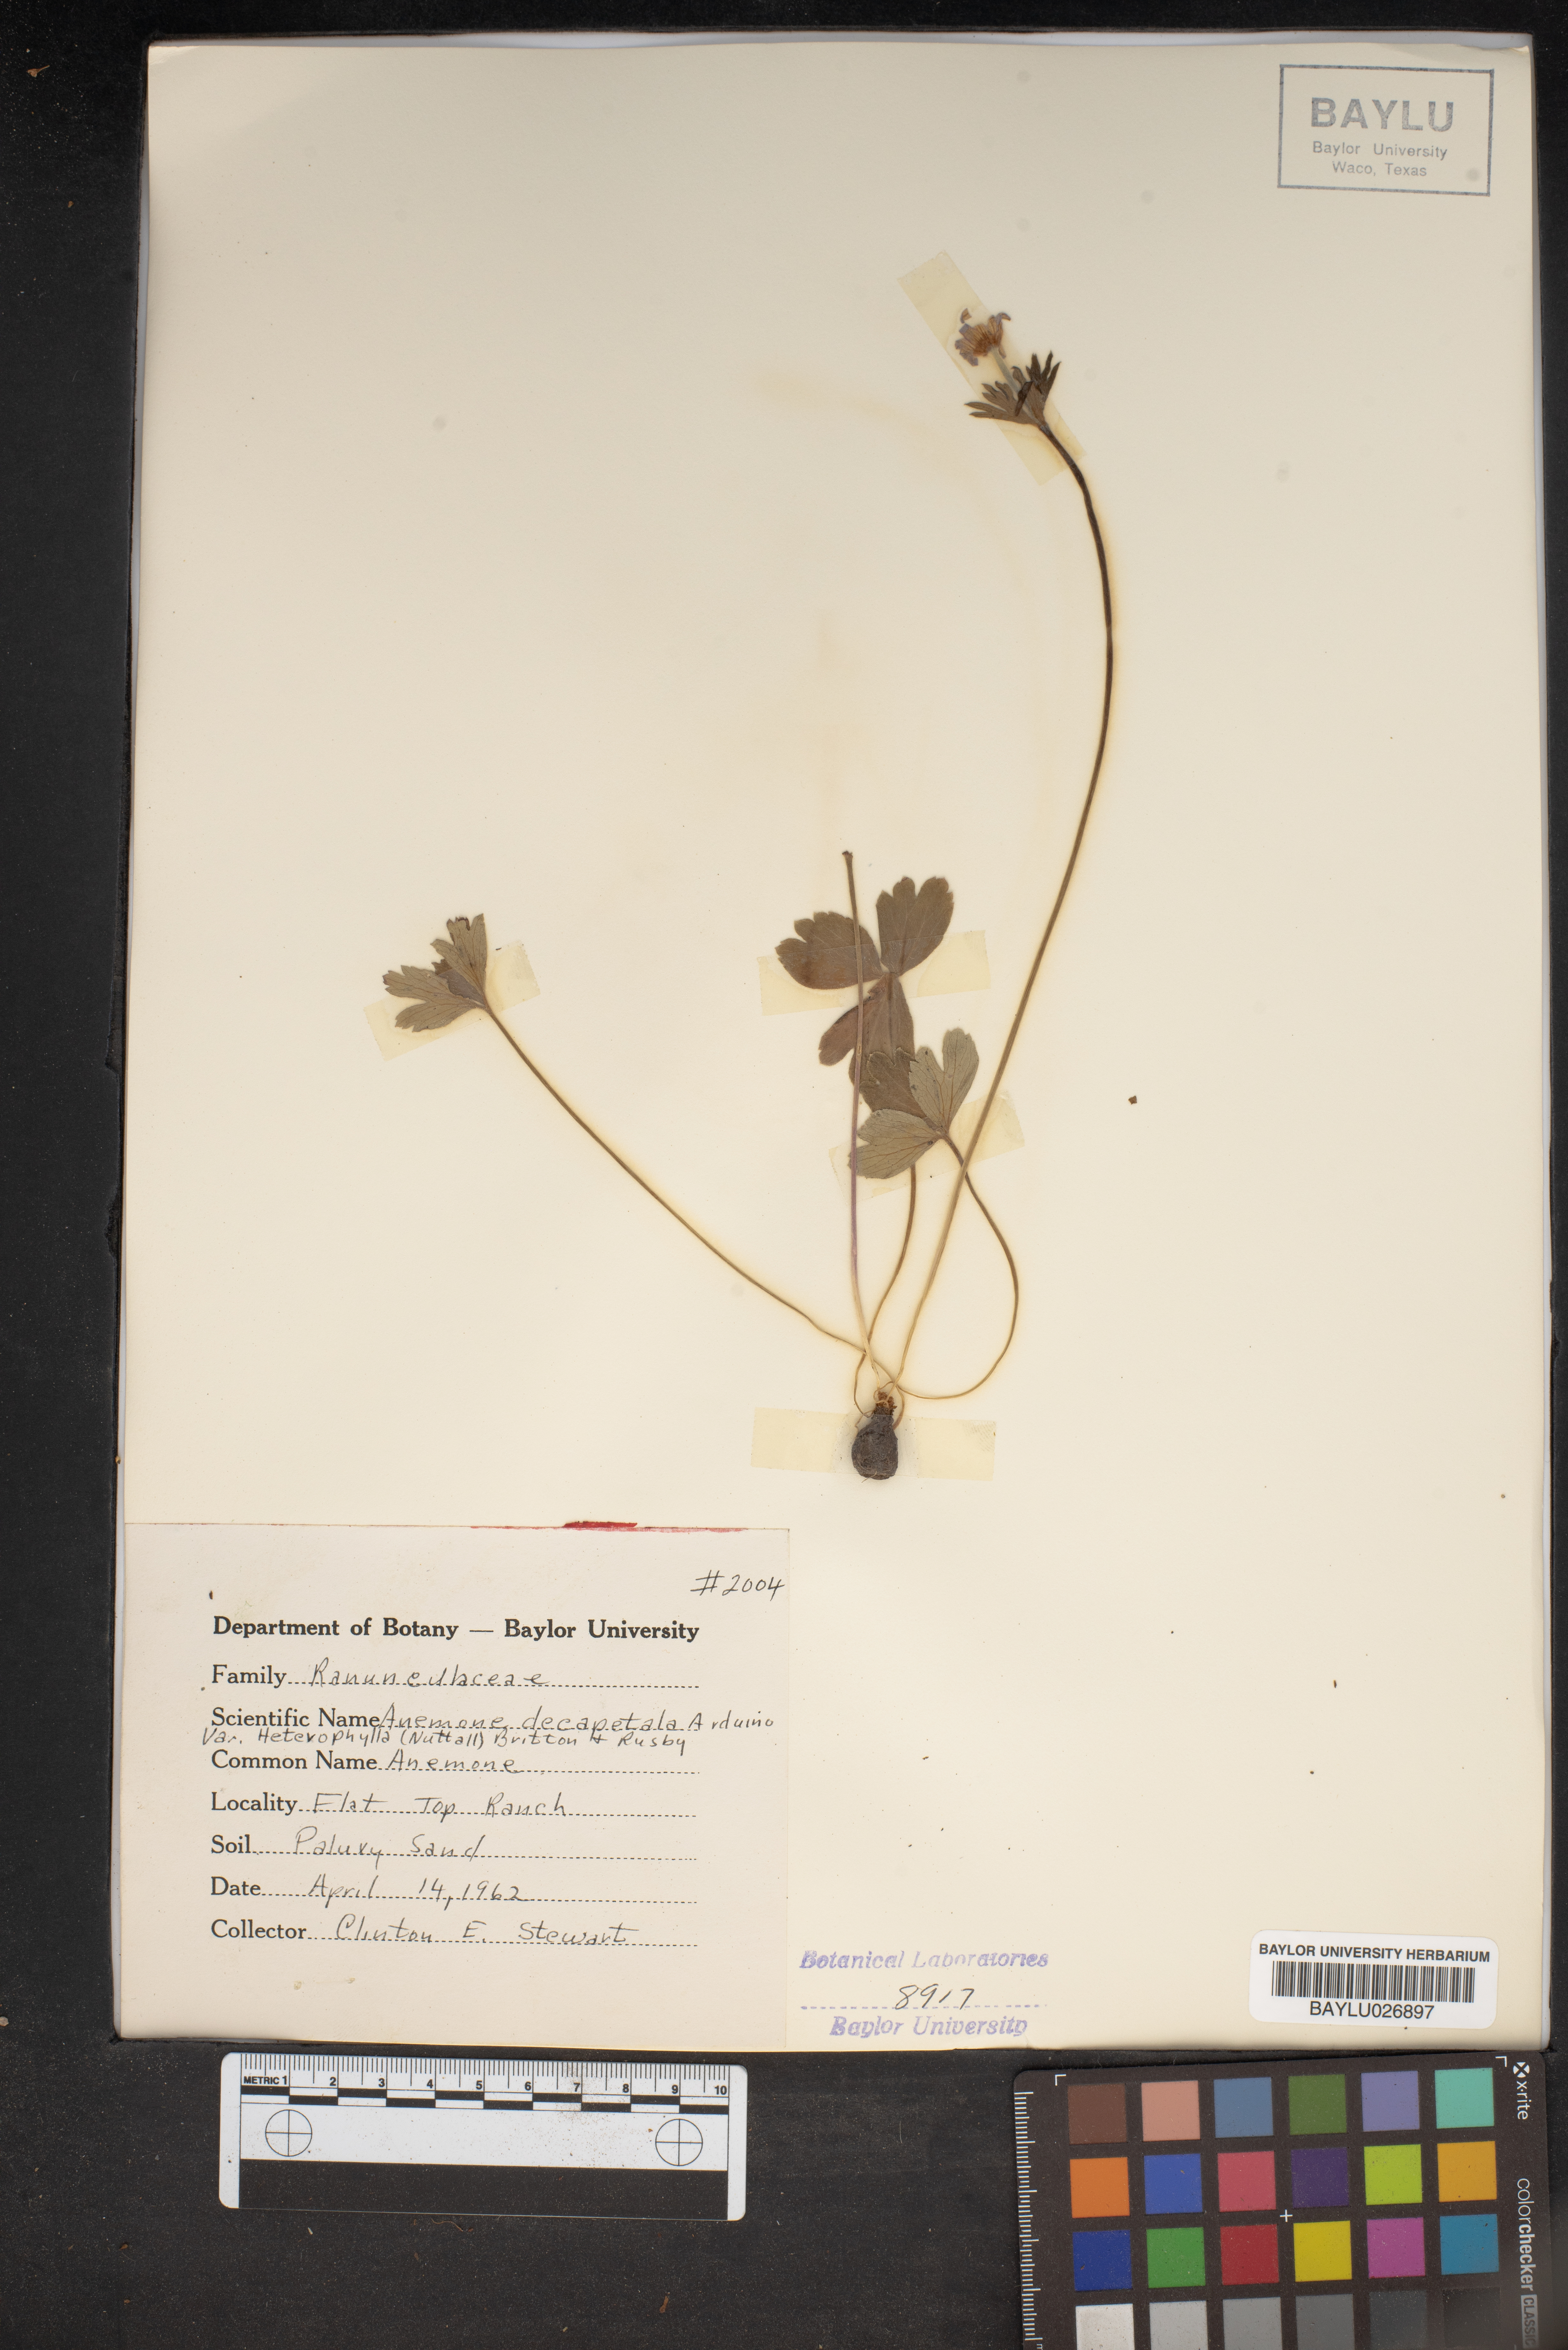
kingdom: Plantae
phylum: Tracheophyta
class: Magnoliopsida
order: Ranunculales
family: Ranunculaceae
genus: Anemone
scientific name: Anemone berlandieri
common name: Ten-petal anemone
